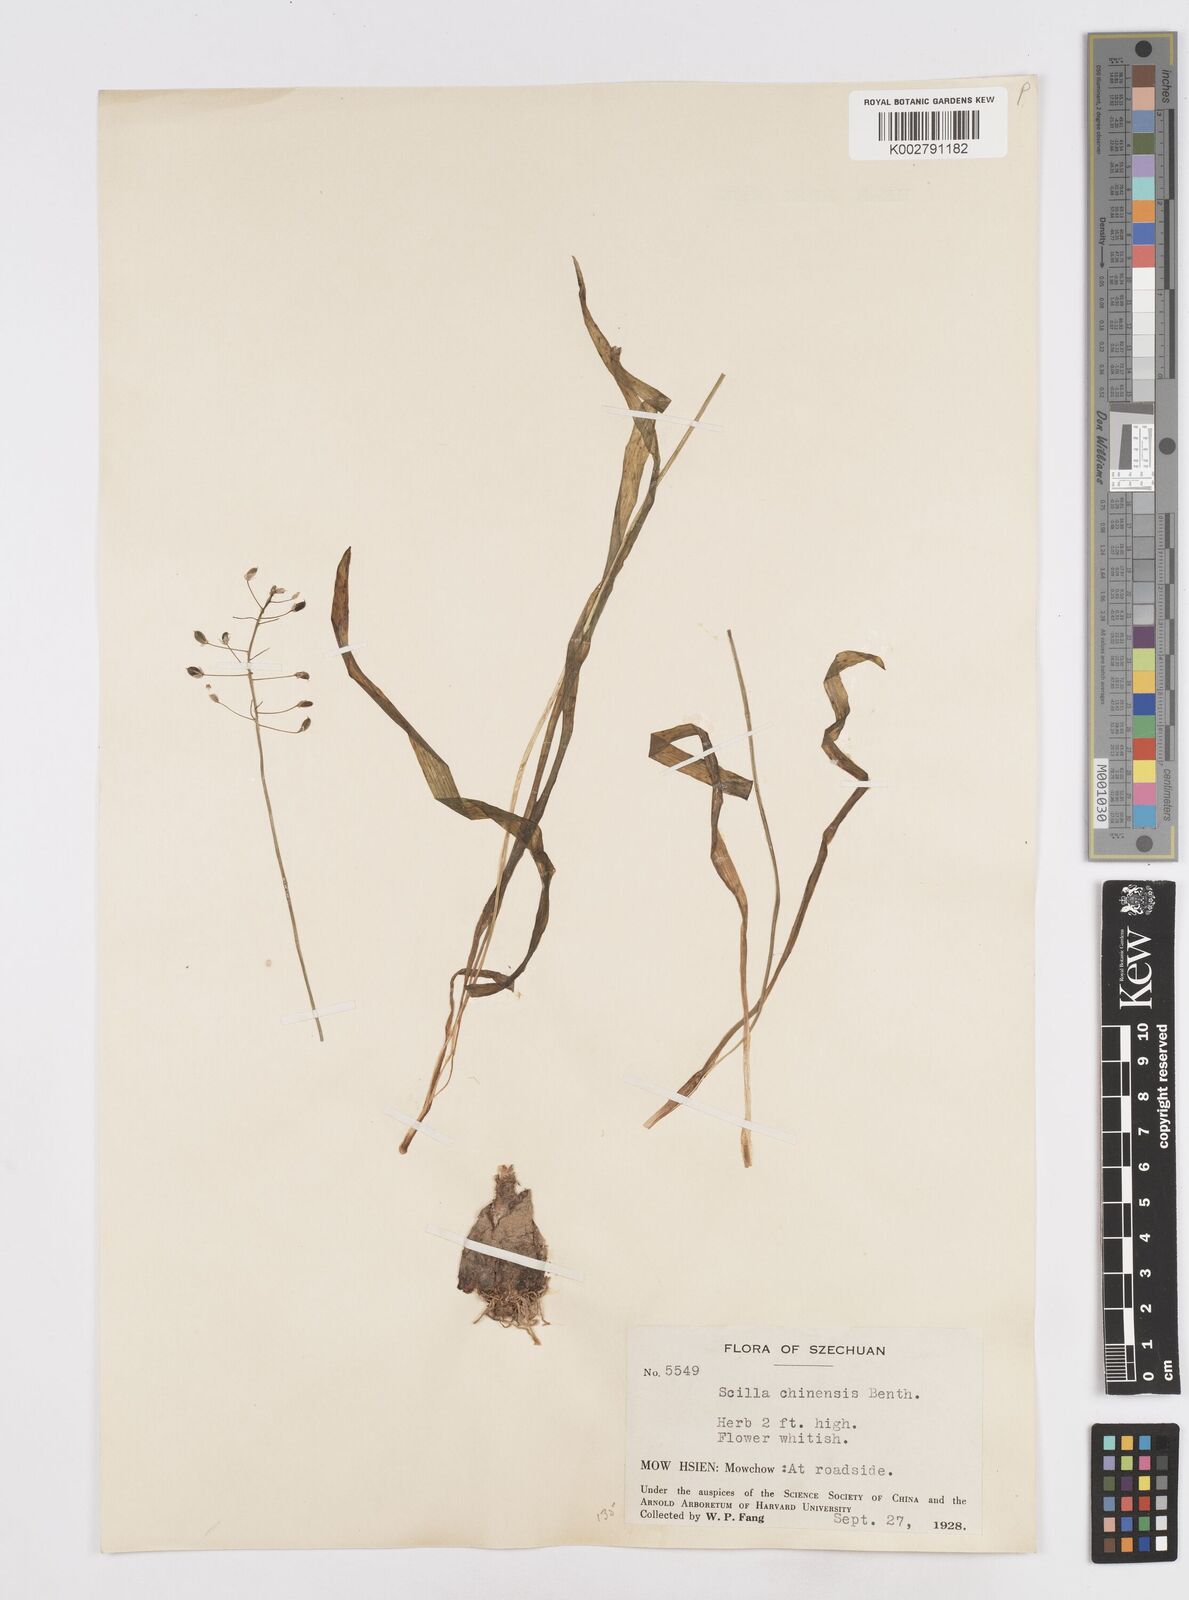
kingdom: Plantae
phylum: Tracheophyta
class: Liliopsida
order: Asparagales
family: Asparagaceae
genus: Barnardia
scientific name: Barnardia japonica
